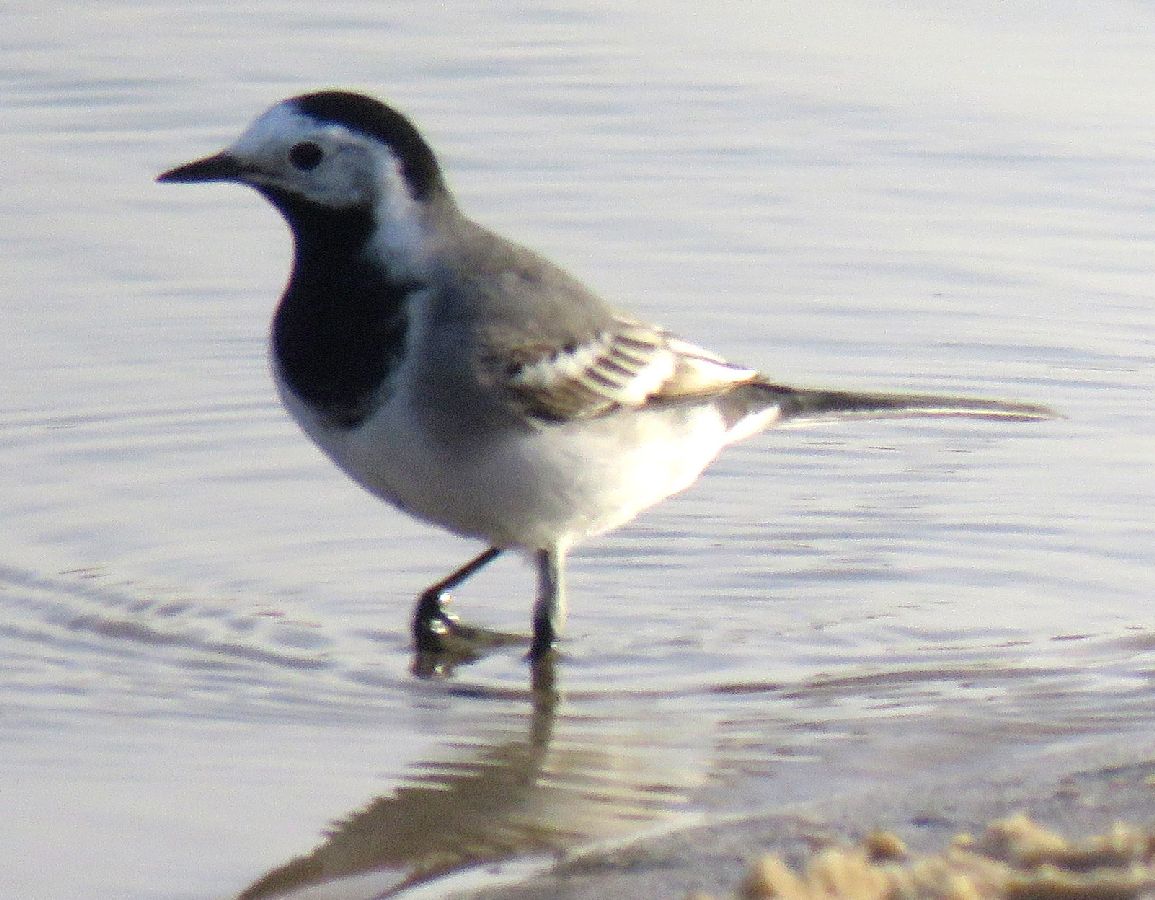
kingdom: Animalia
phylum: Chordata
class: Aves
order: Passeriformes
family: Motacillidae
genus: Motacilla
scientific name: Motacilla alba
